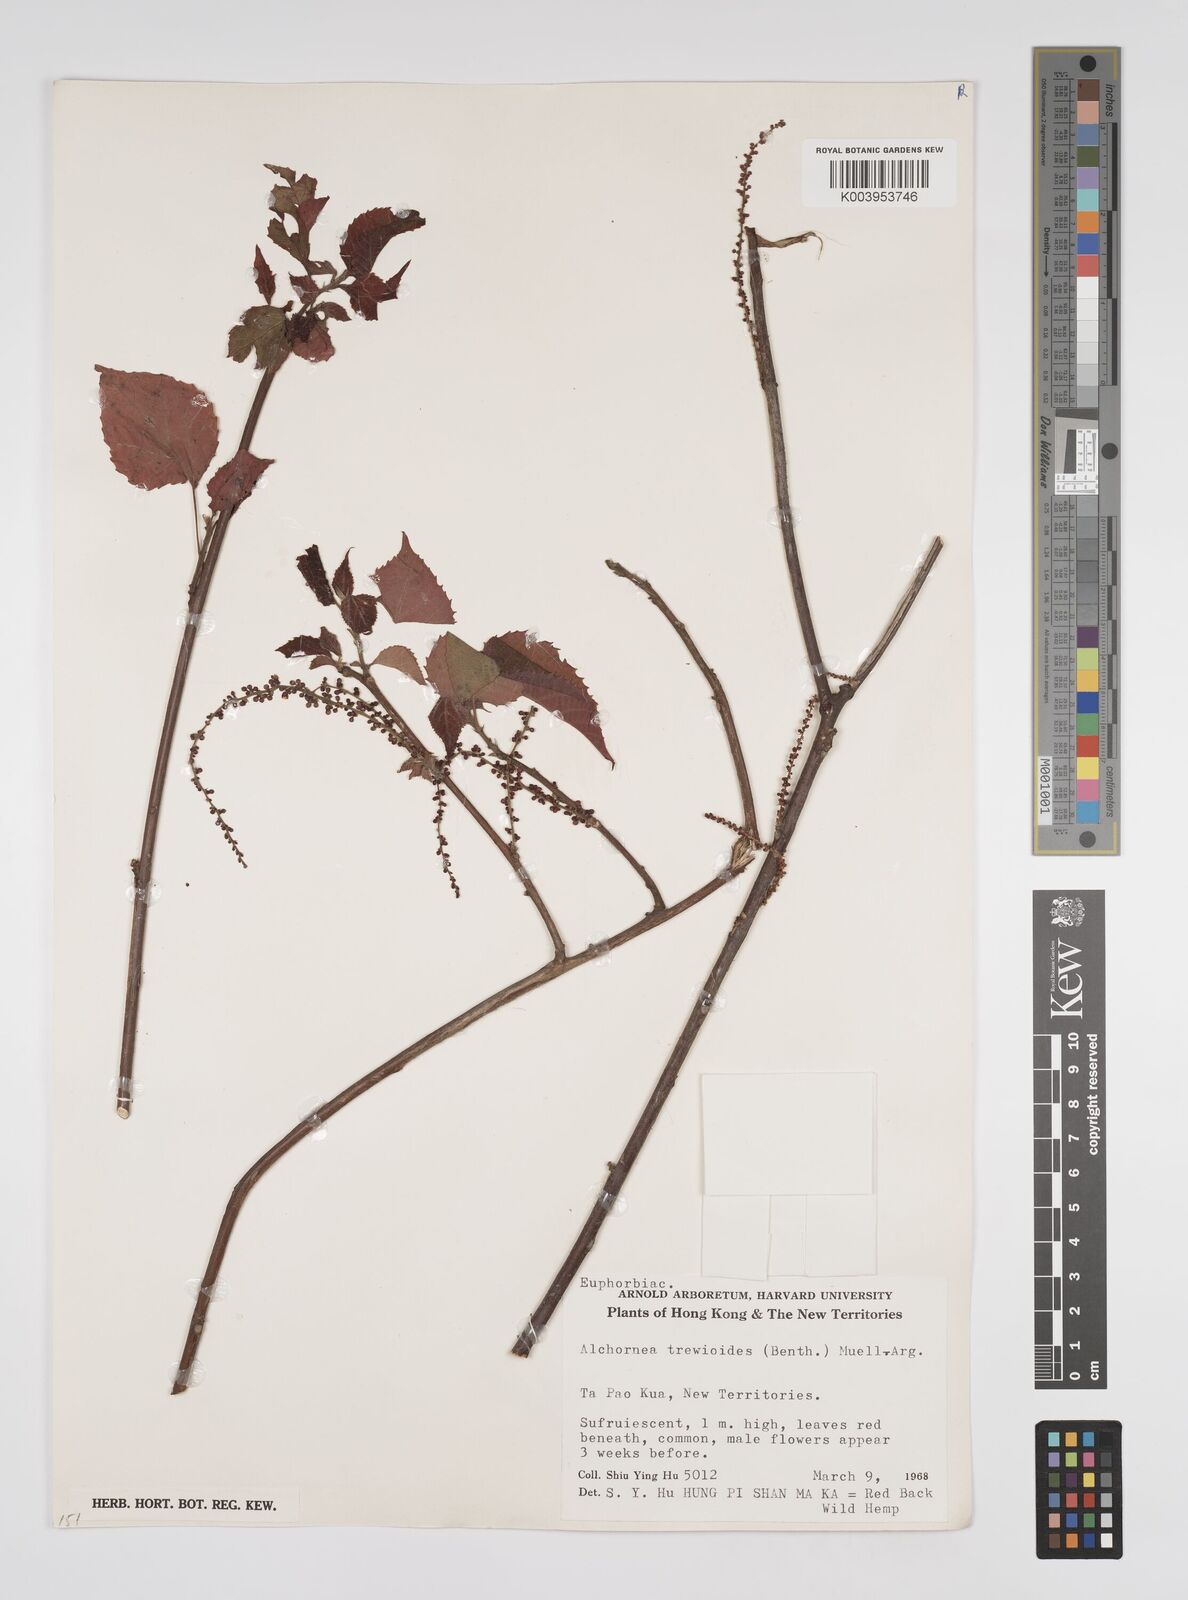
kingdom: Plantae
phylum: Tracheophyta
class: Magnoliopsida
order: Malpighiales
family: Euphorbiaceae
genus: Alchornea
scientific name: Alchornea trewioides
